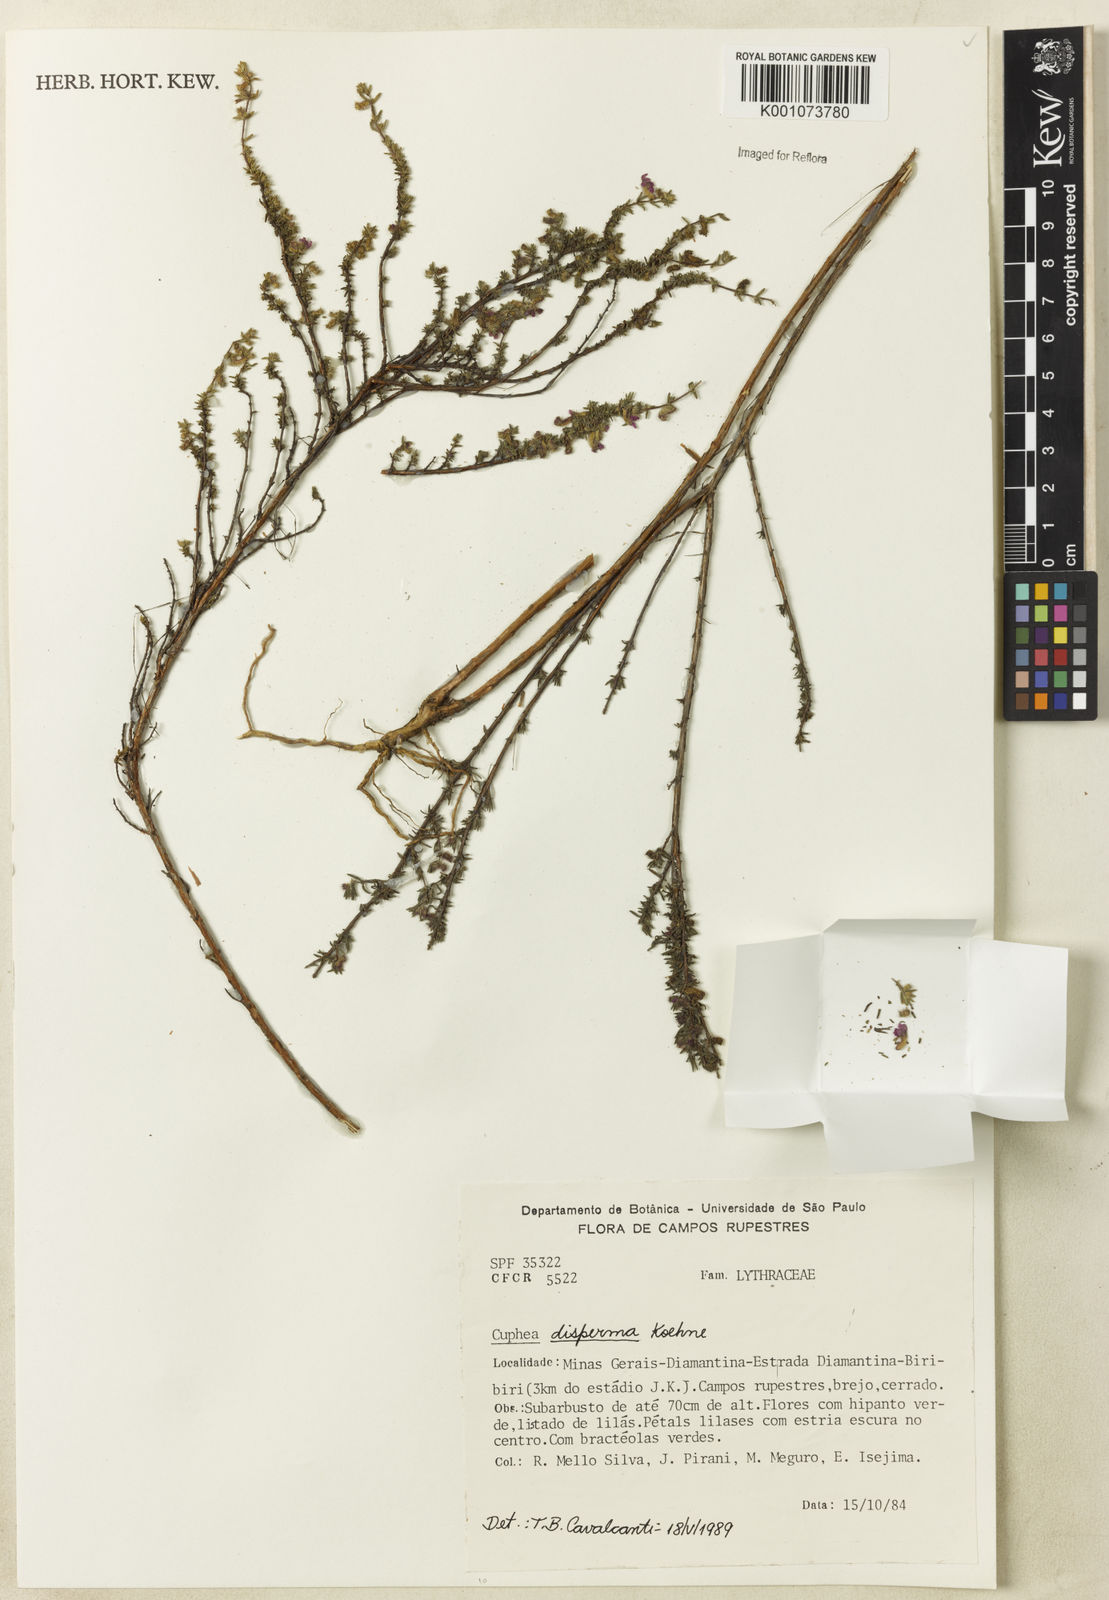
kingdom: Plantae
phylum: Tracheophyta
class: Magnoliopsida
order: Myrtales
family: Lythraceae
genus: Cuphea
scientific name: Cuphea disperma
